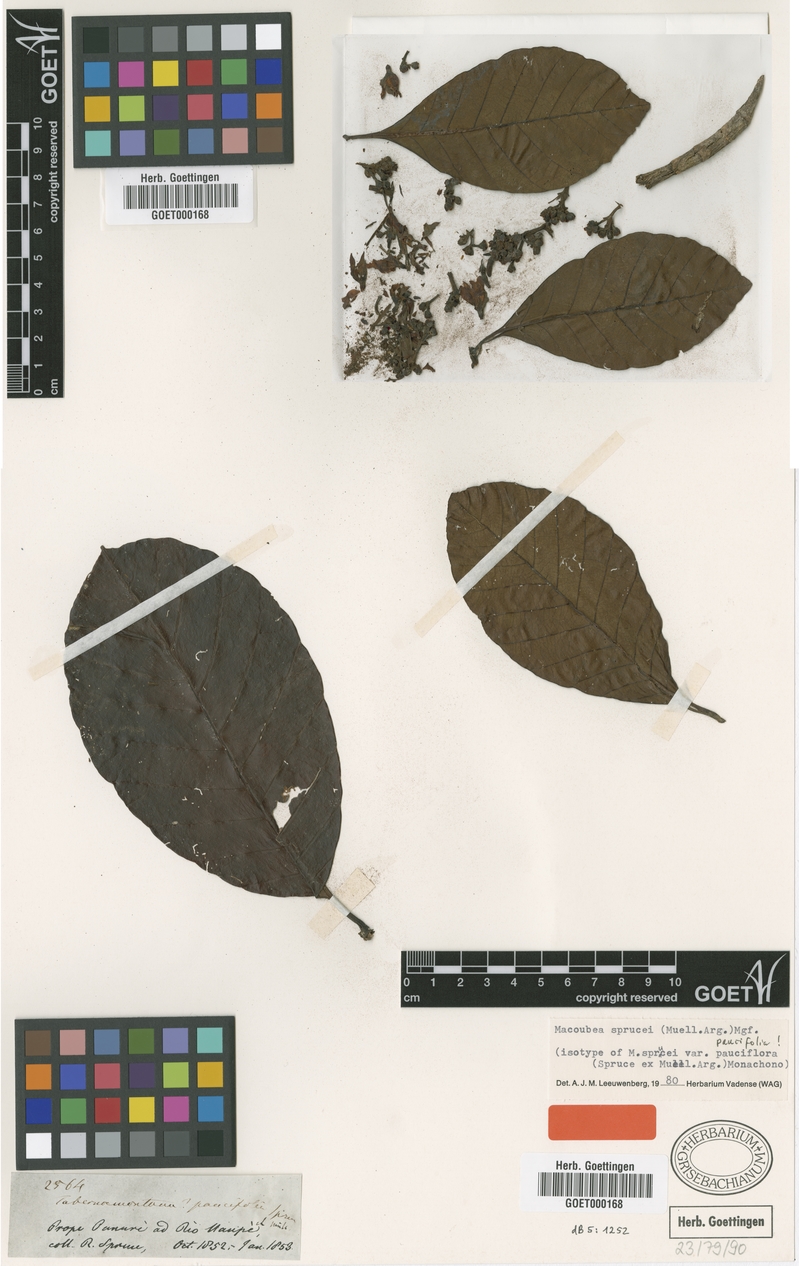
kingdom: Plantae
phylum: Tracheophyta
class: Magnoliopsida
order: Gentianales
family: Apocynaceae
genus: Macoubea
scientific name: Macoubea sprucei
